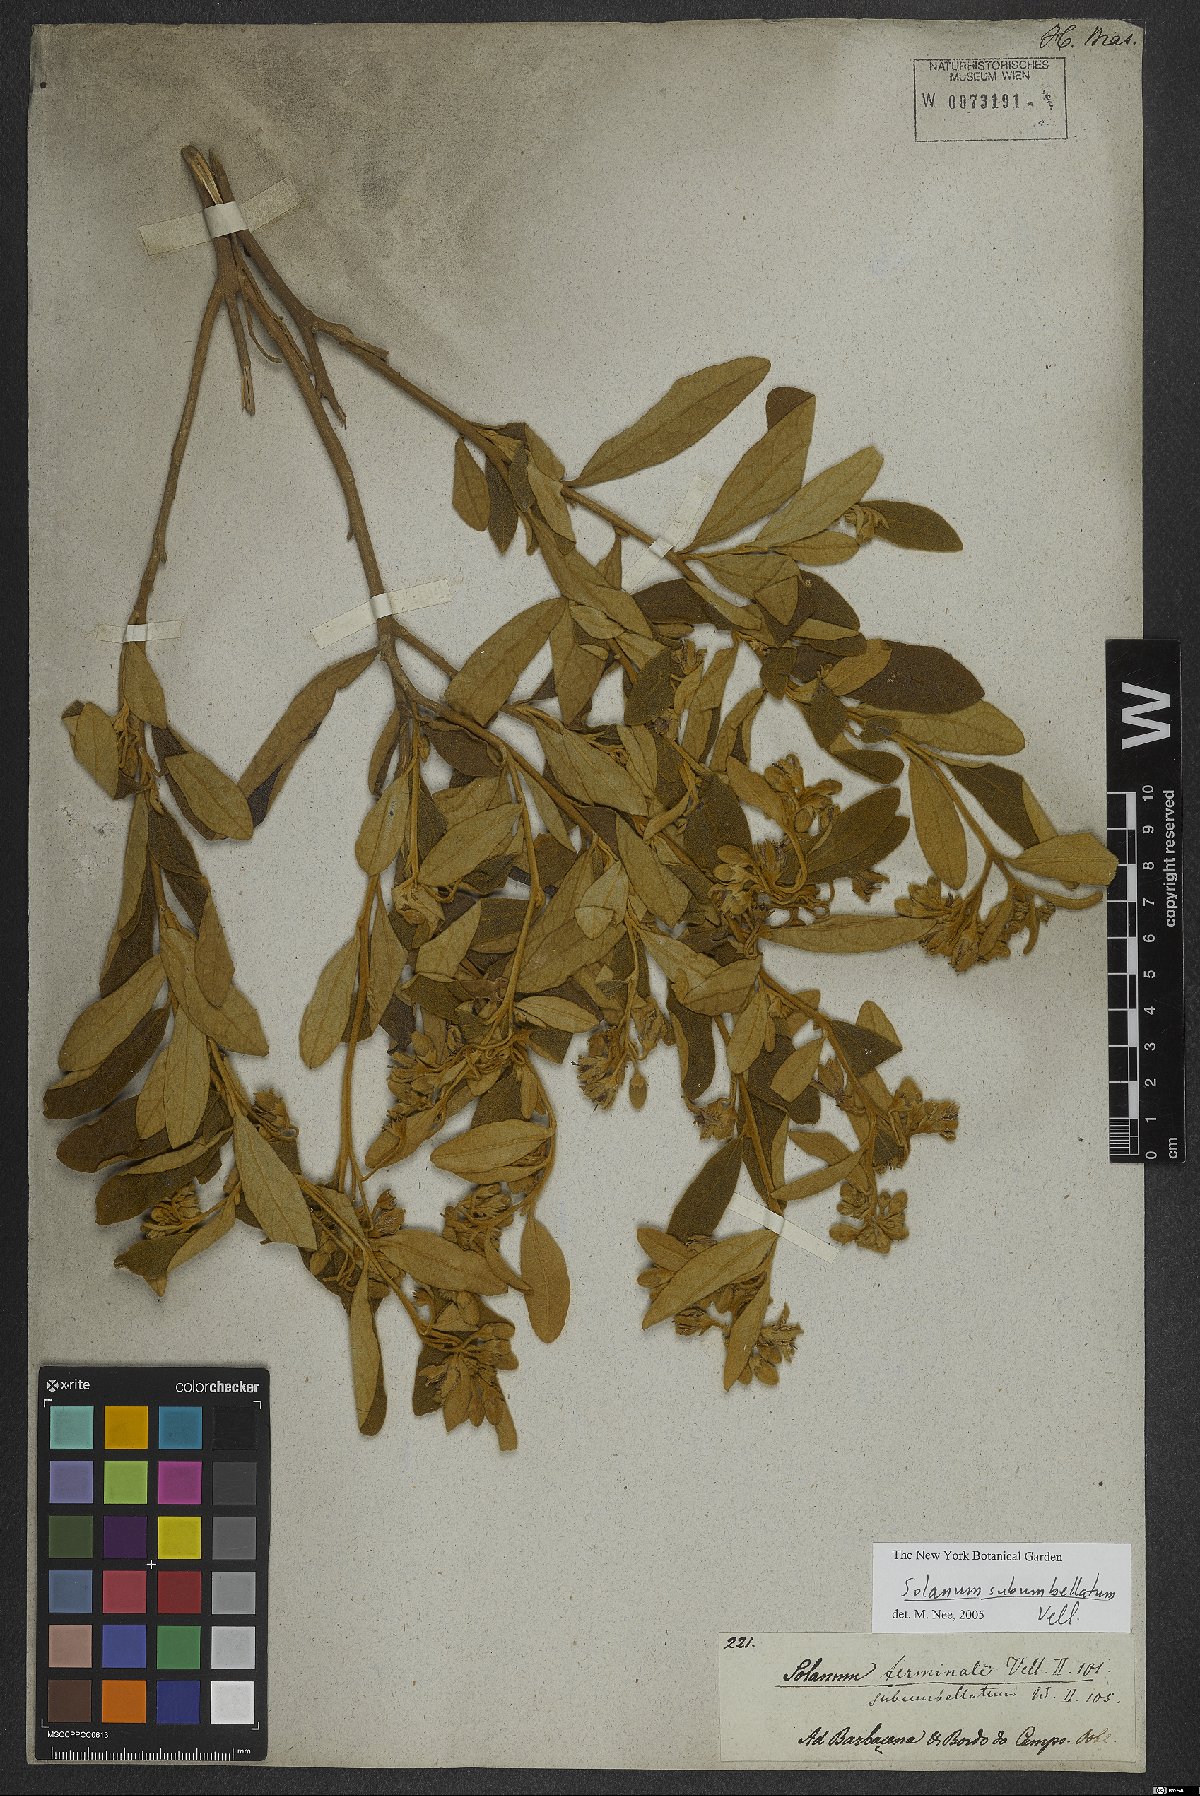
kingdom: Plantae
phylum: Tracheophyta
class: Magnoliopsida
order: Solanales
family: Solanaceae
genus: Solanum
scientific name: Solanum subumbellatum
